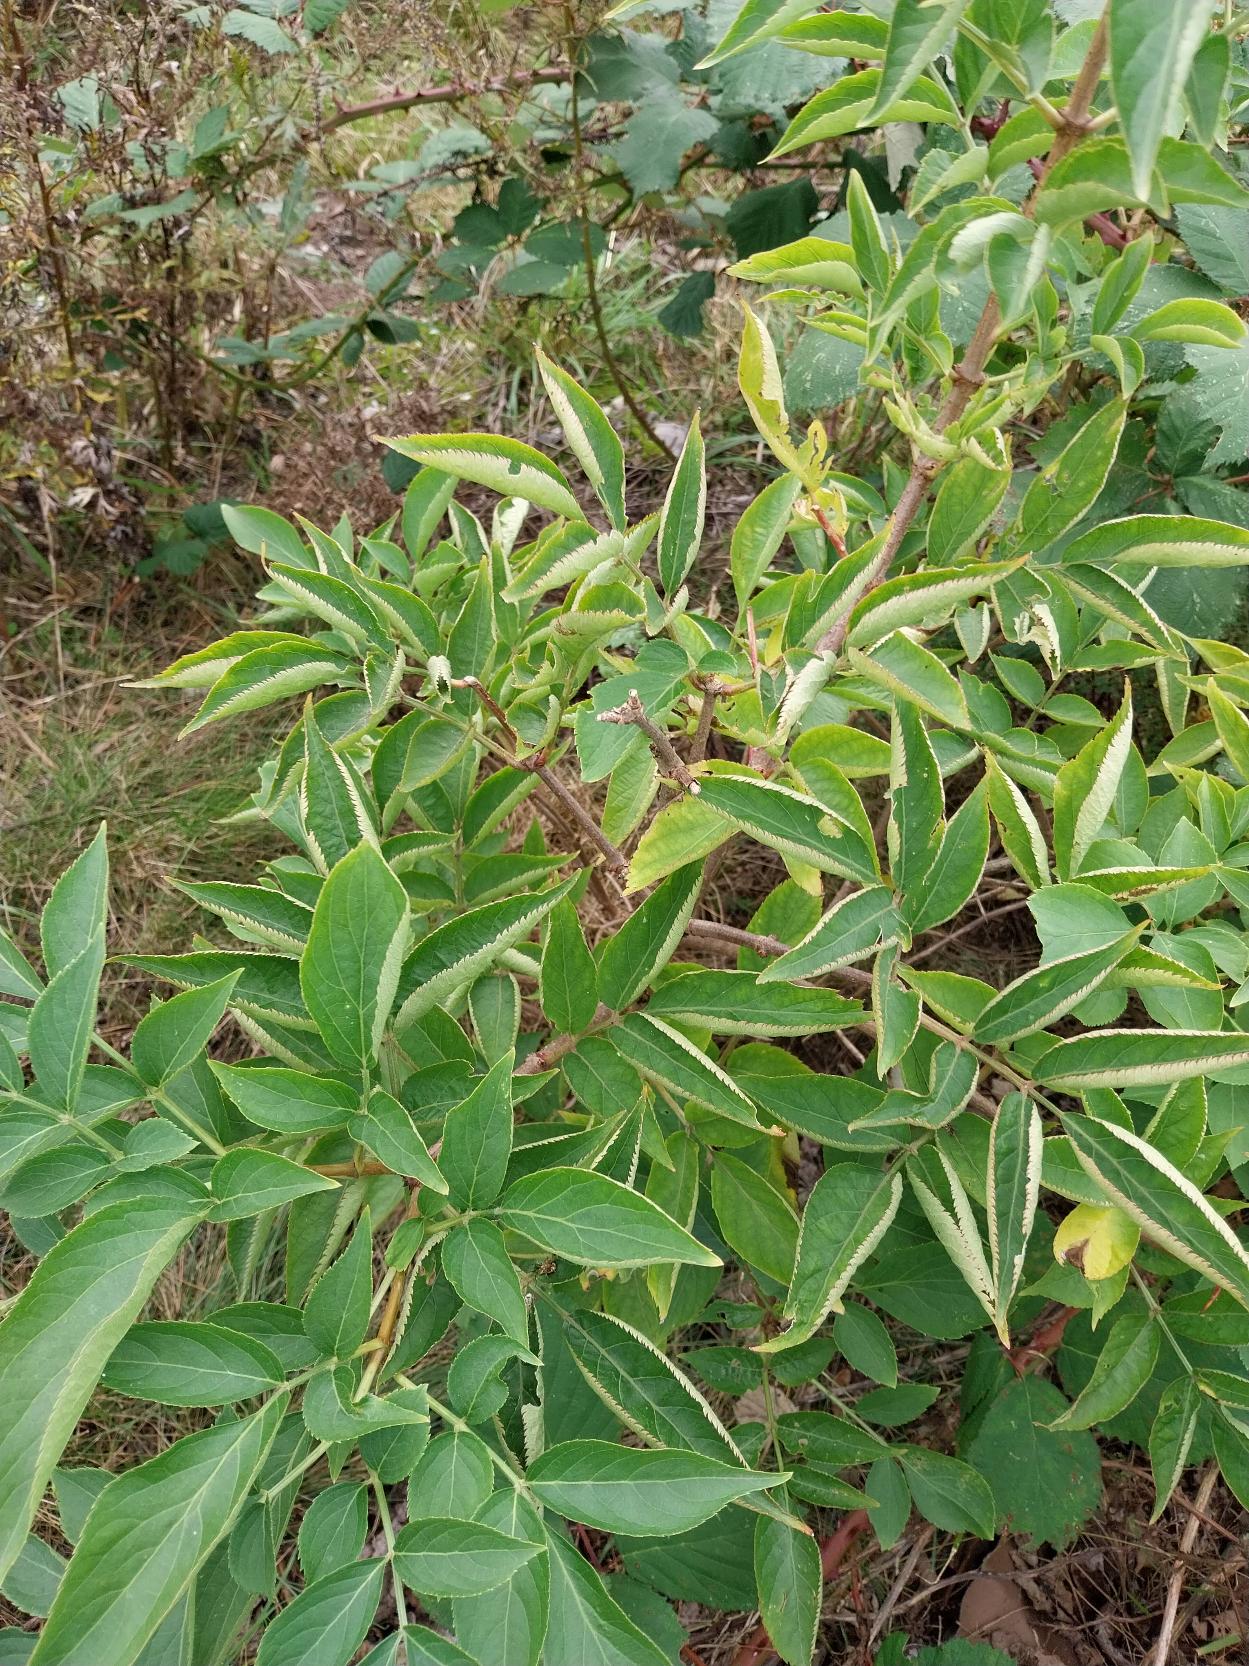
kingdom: Plantae
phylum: Tracheophyta
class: Magnoliopsida
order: Dipsacales
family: Viburnaceae
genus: Sambucus
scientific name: Sambucus nigra
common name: Almindelig hyld
